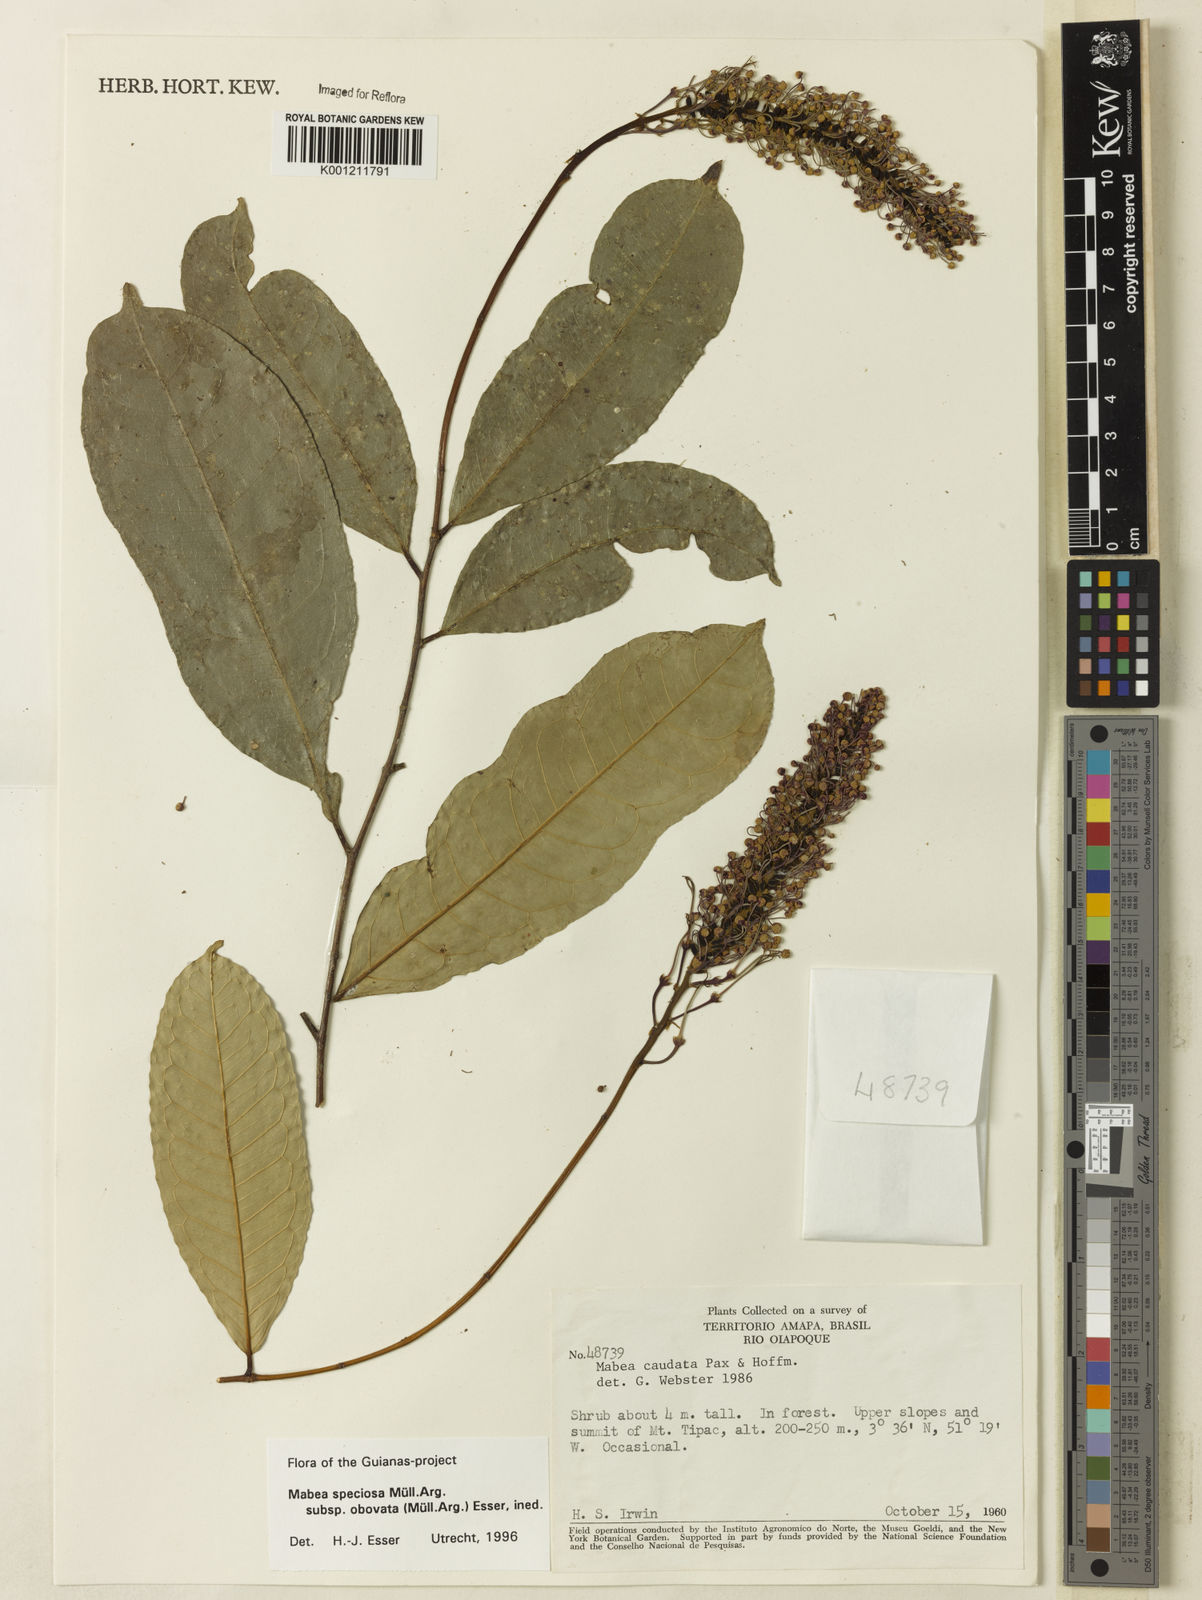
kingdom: Plantae
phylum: Tracheophyta
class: Magnoliopsida
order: Malpighiales
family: Euphorbiaceae
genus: Mabea
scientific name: Mabea
